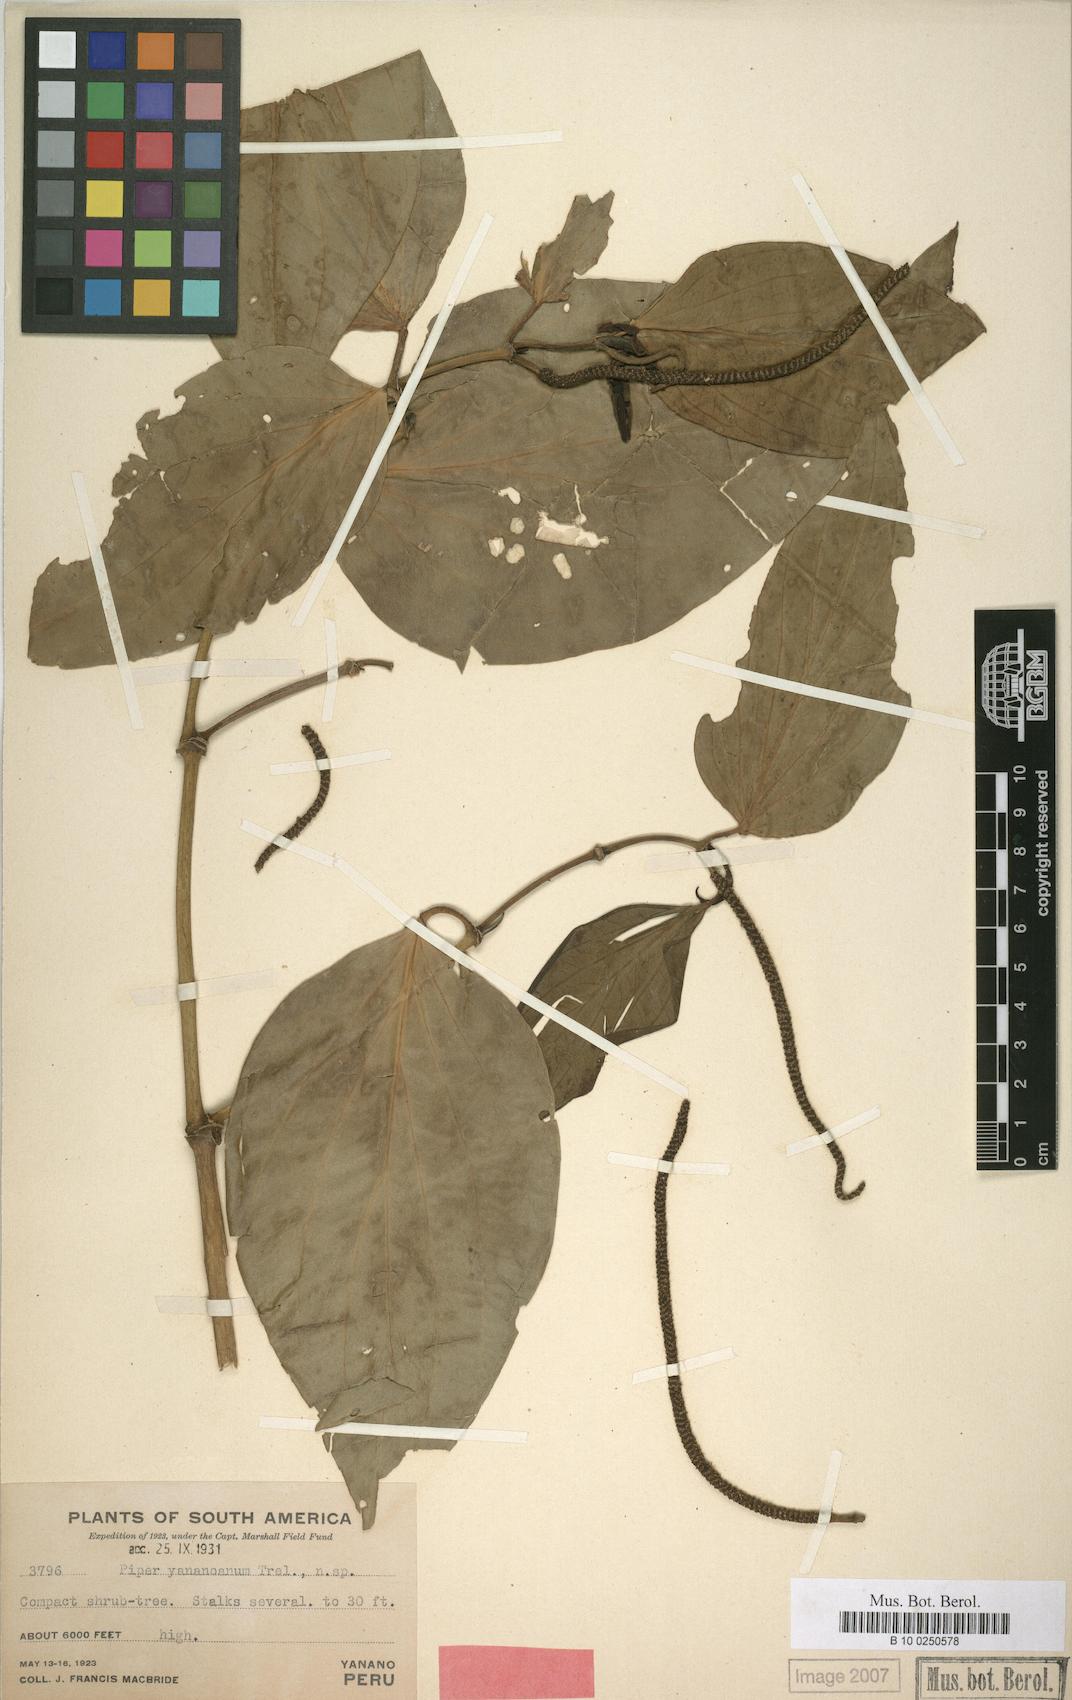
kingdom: Plantae
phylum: Tracheophyta
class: Magnoliopsida
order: Piperales
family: Piperaceae
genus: Piper
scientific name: Piper yananoanum
